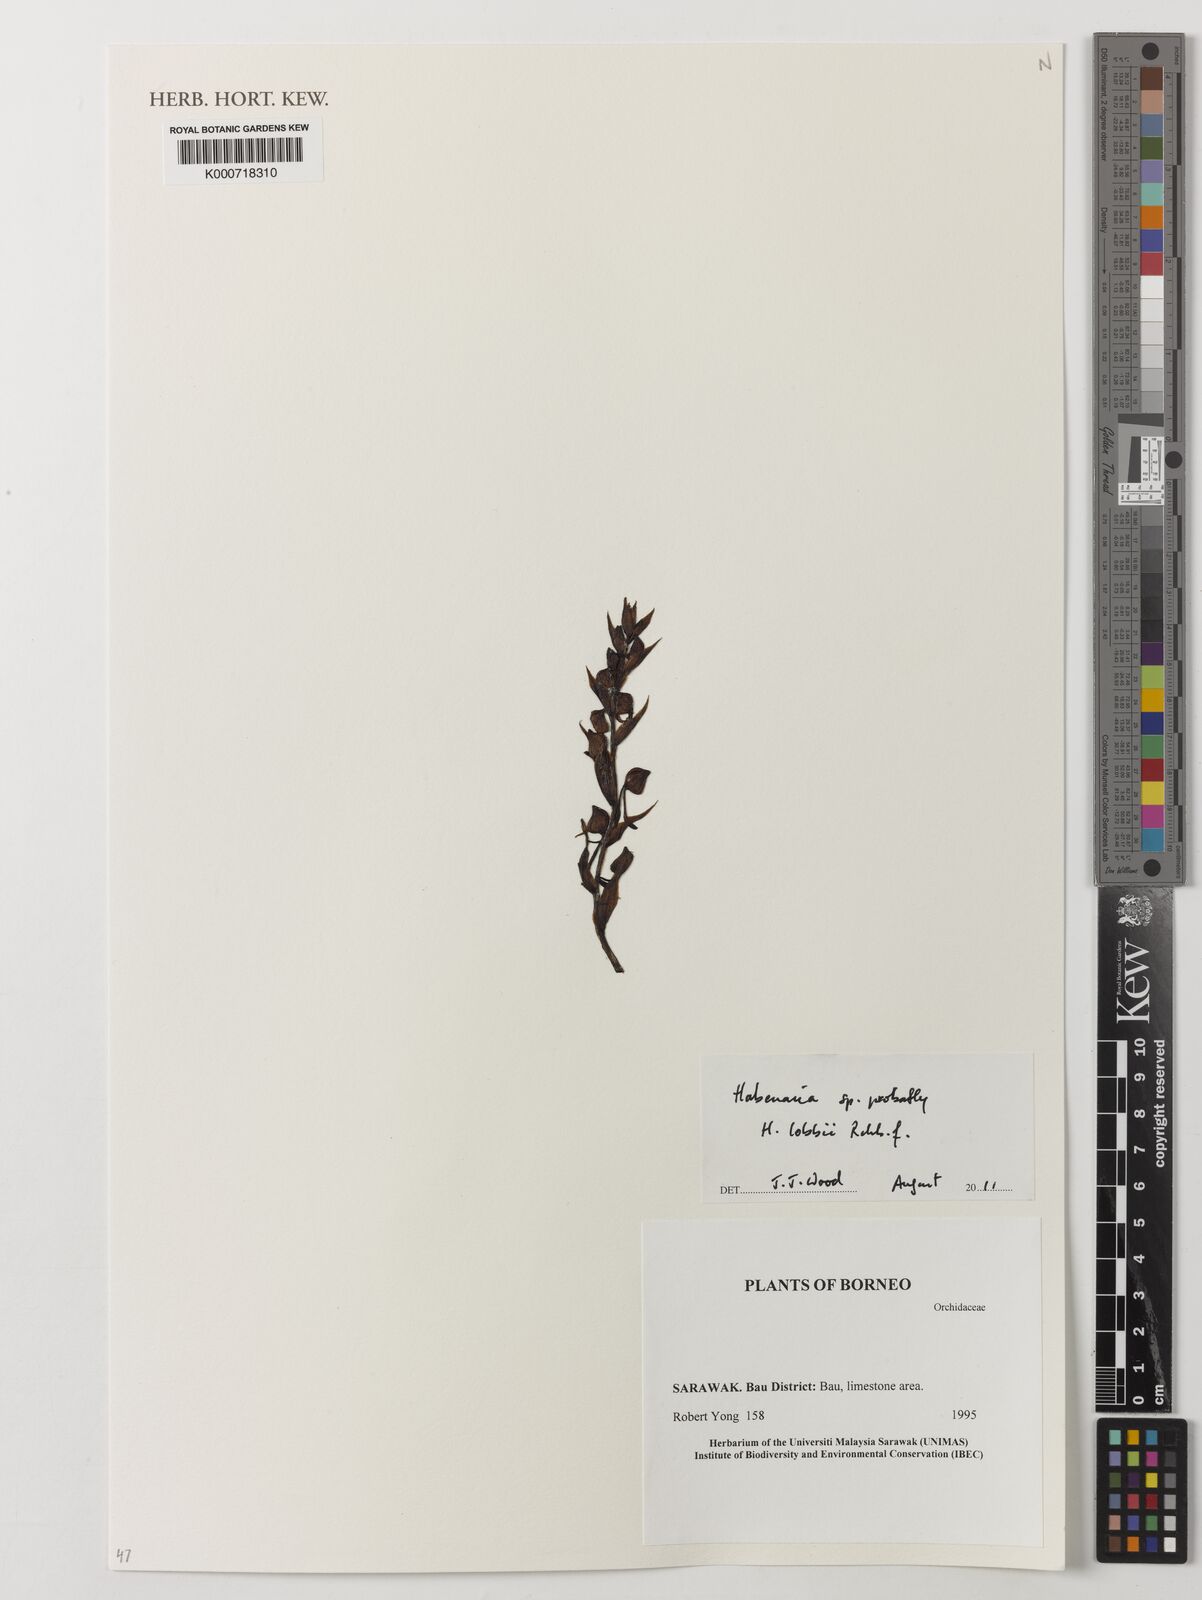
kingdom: Plantae
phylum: Tracheophyta
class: Liliopsida
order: Asparagales
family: Orchidaceae
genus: Habenaria
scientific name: Habenaria
